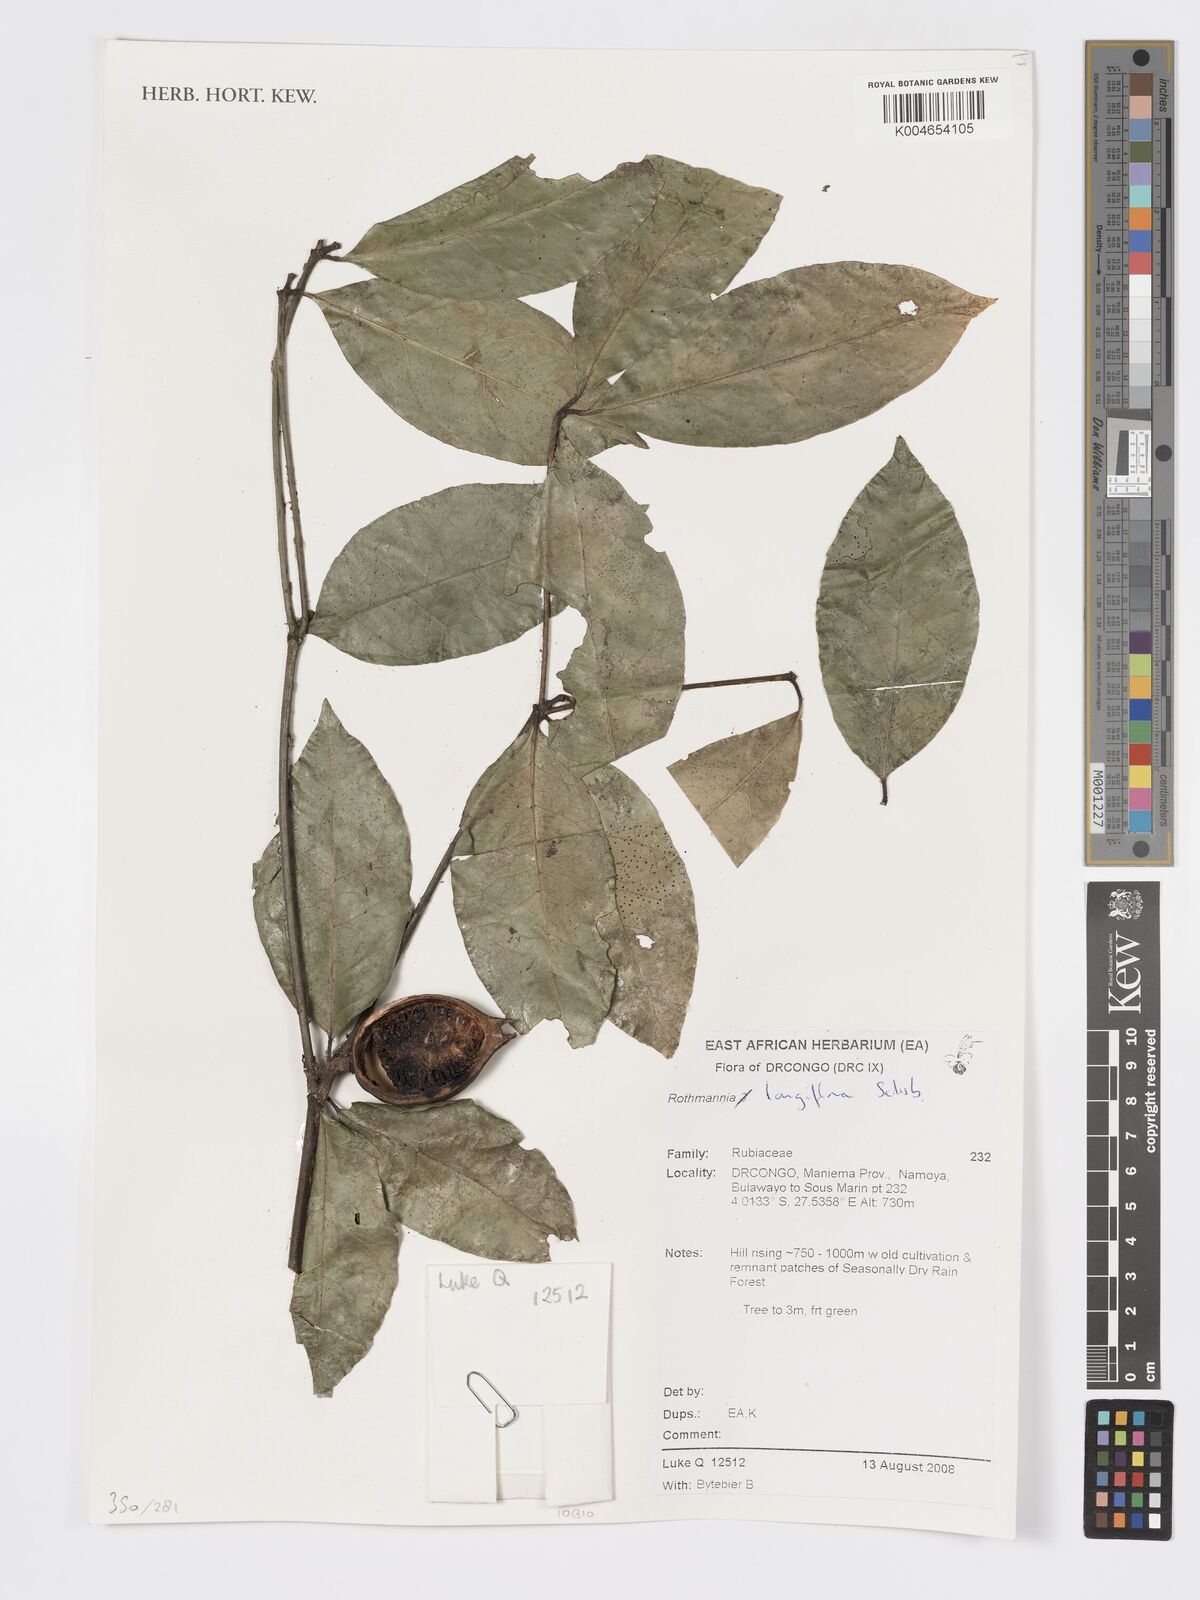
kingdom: Plantae
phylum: Tracheophyta
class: Magnoliopsida
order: Gentianales
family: Rubiaceae
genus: Rothmannia
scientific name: Rothmannia longiflora
